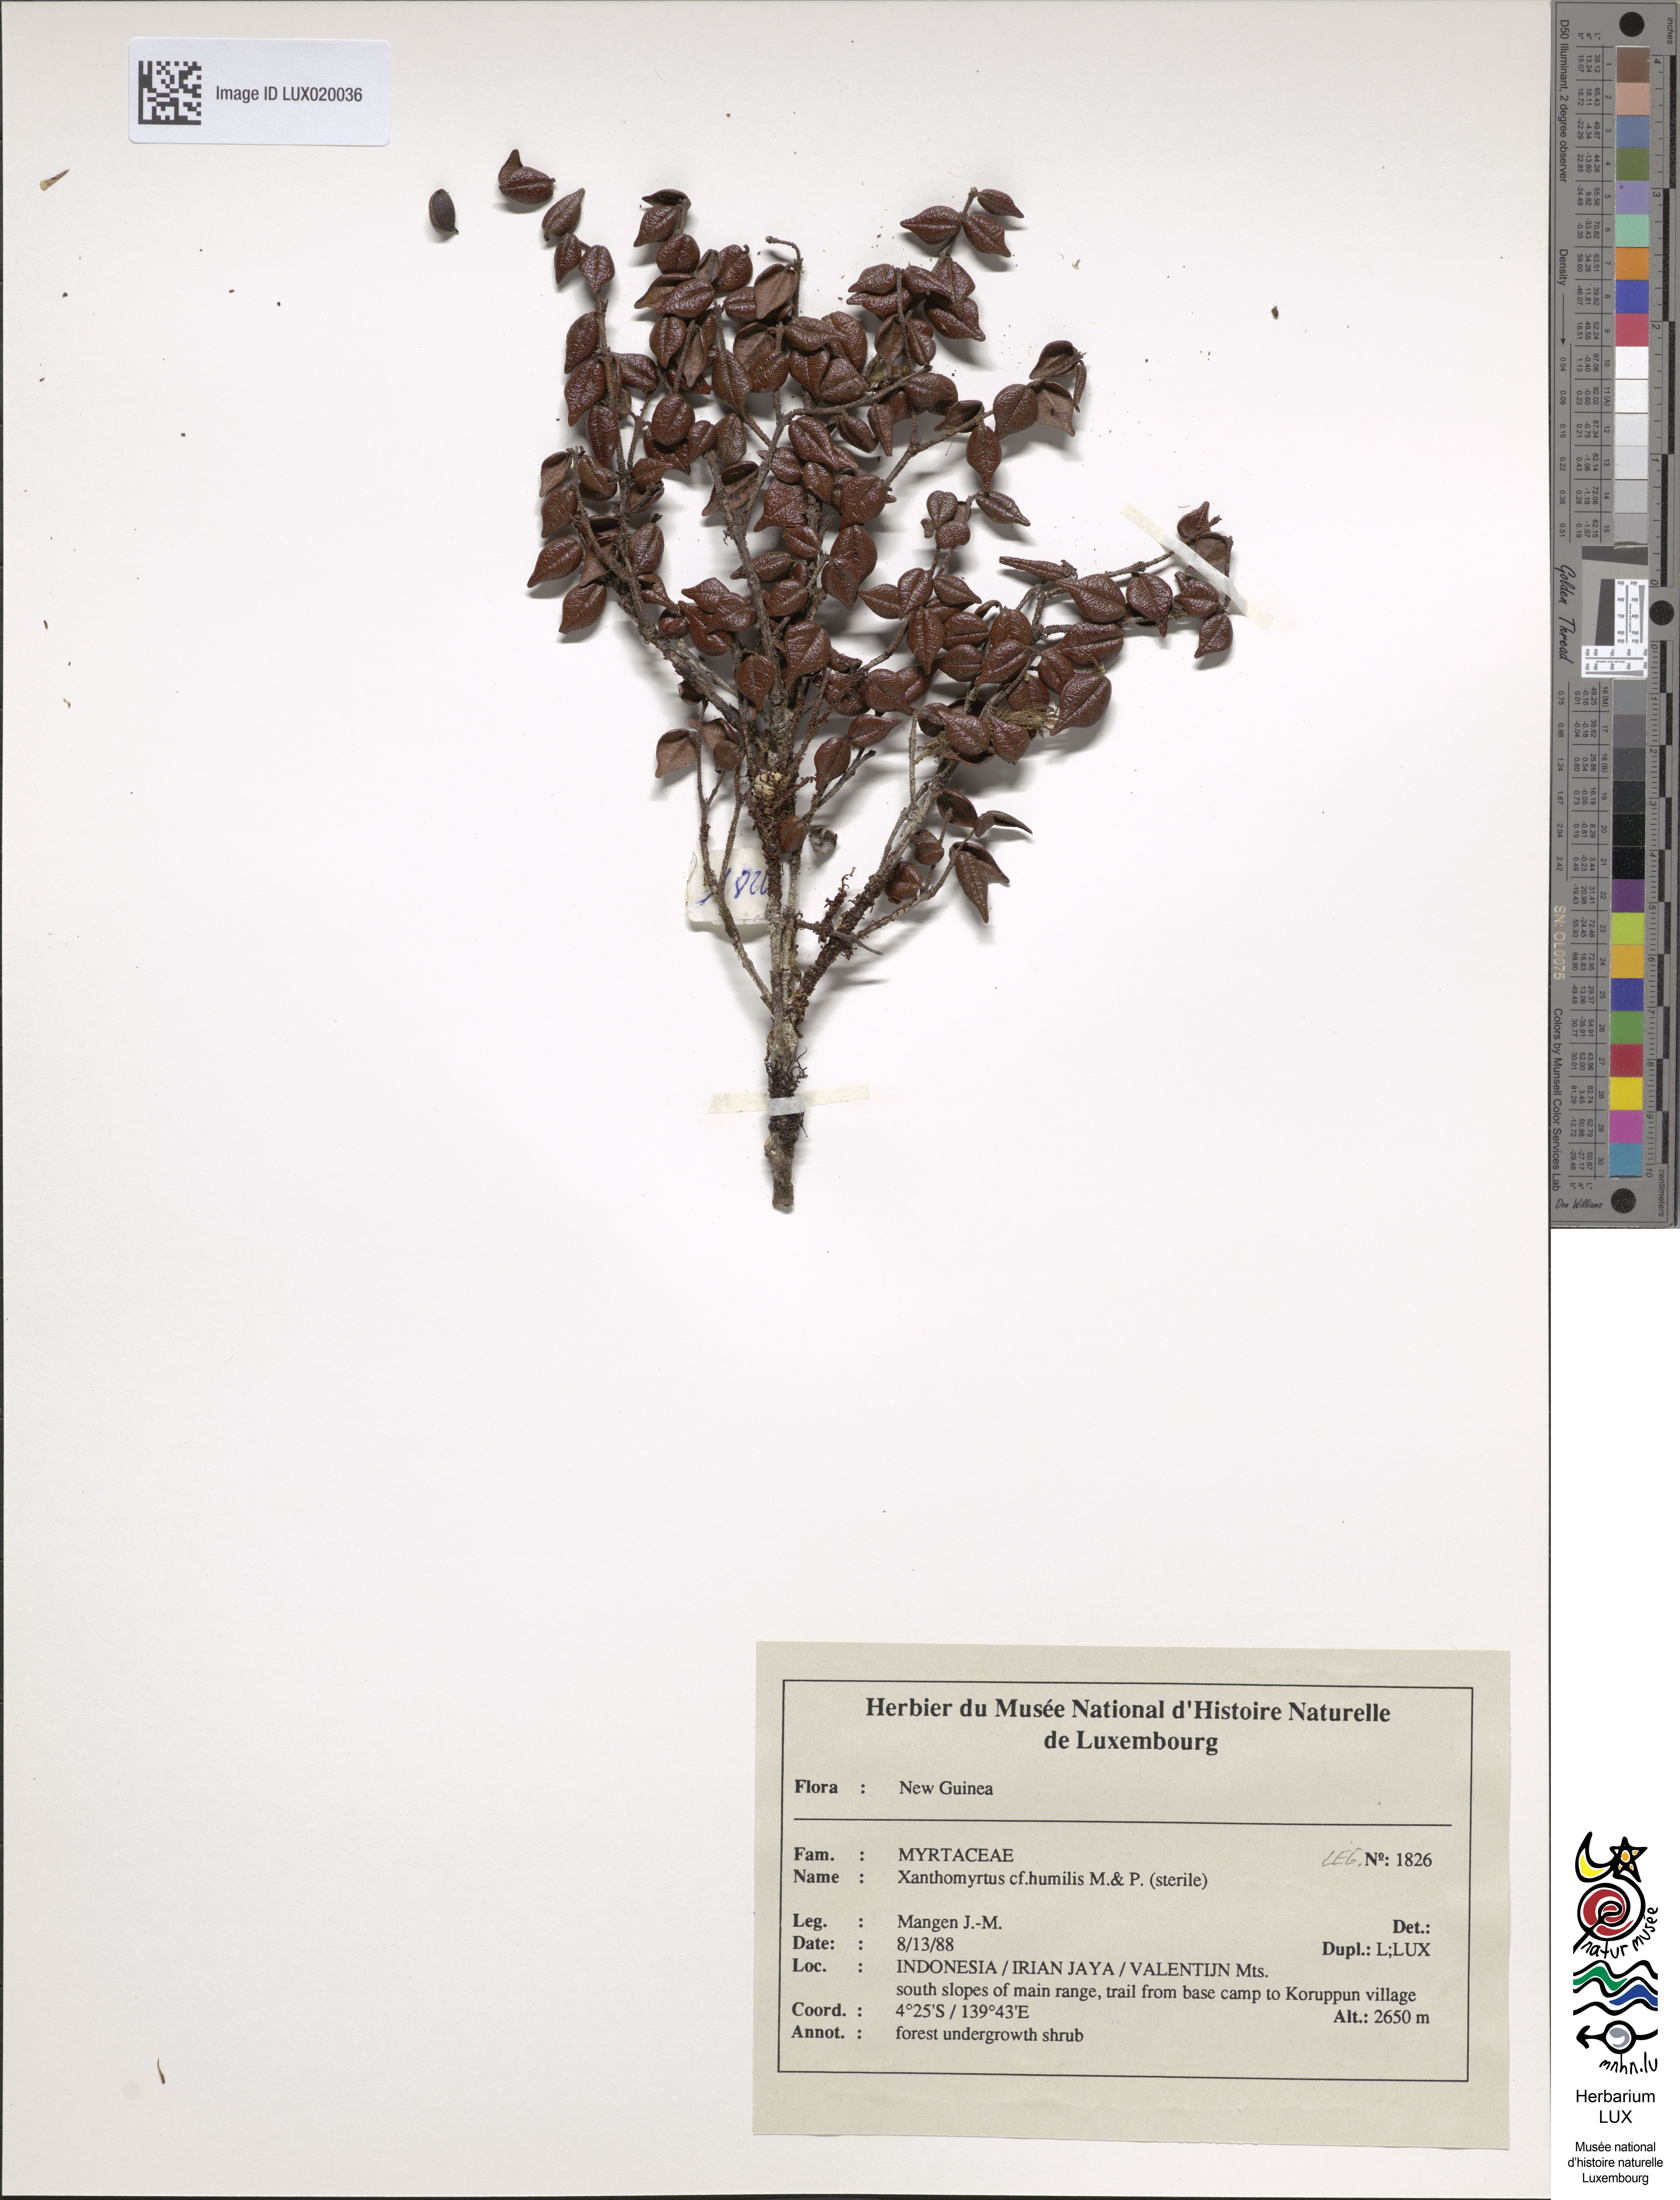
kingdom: Plantae
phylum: Tracheophyta
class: Magnoliopsida
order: Myrtales
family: Myrtaceae
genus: Xanthomyrtus
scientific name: Xanthomyrtus humilis
